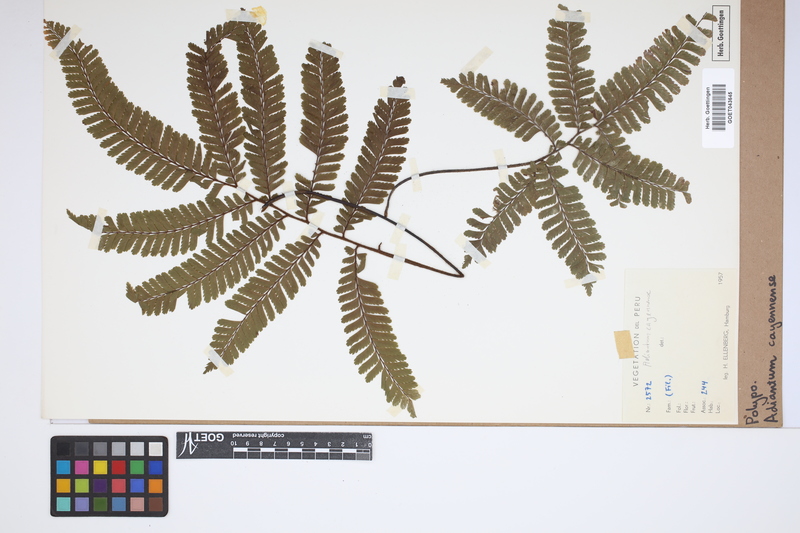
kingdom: Plantae
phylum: Tracheophyta
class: Polypodiopsida
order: Polypodiales
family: Pteridaceae
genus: Adiantum
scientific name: Adiantum cajennense
